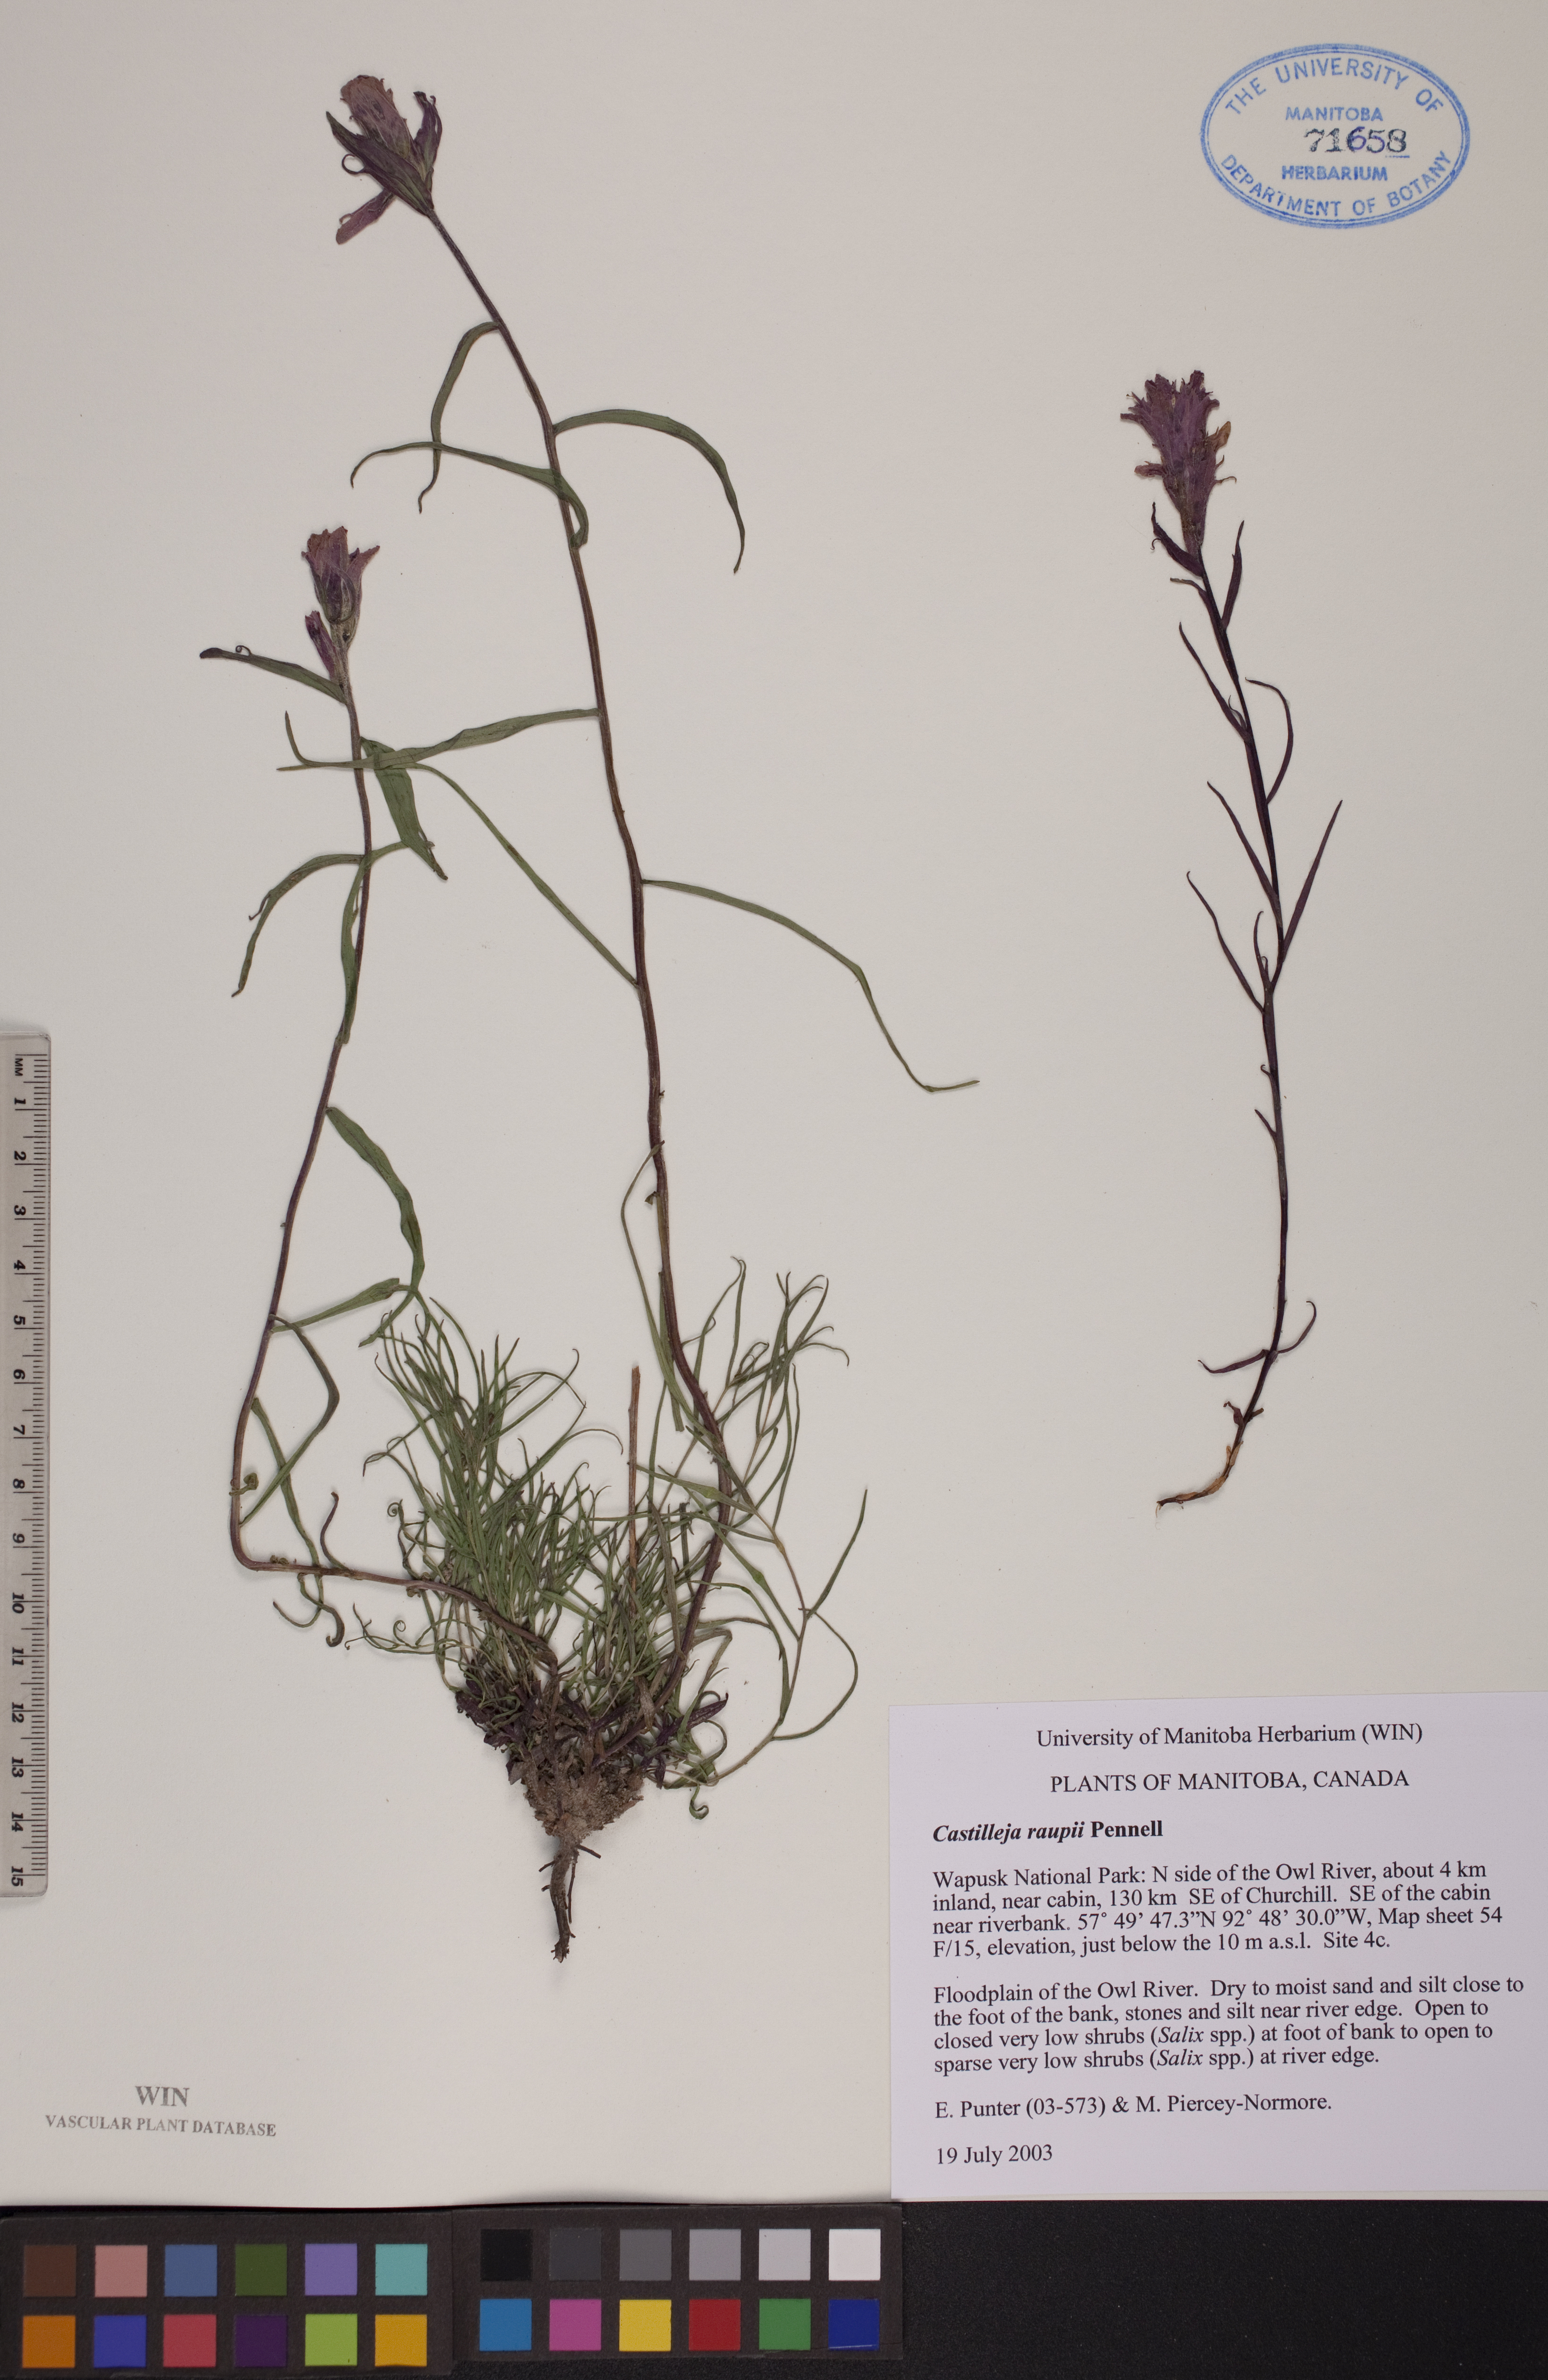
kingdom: Plantae
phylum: Tracheophyta
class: Magnoliopsida
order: Lamiales
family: Orobanchaceae
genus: Castilleja
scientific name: Castilleja raupii
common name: Raup's paintbrush
